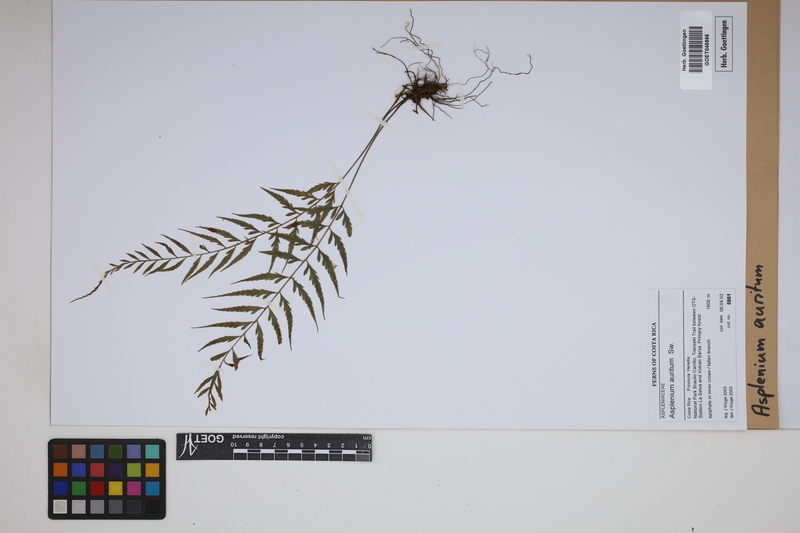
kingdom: Plantae
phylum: Tracheophyta
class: Polypodiopsida
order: Polypodiales
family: Aspleniaceae
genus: Asplenium
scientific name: Asplenium auritum
